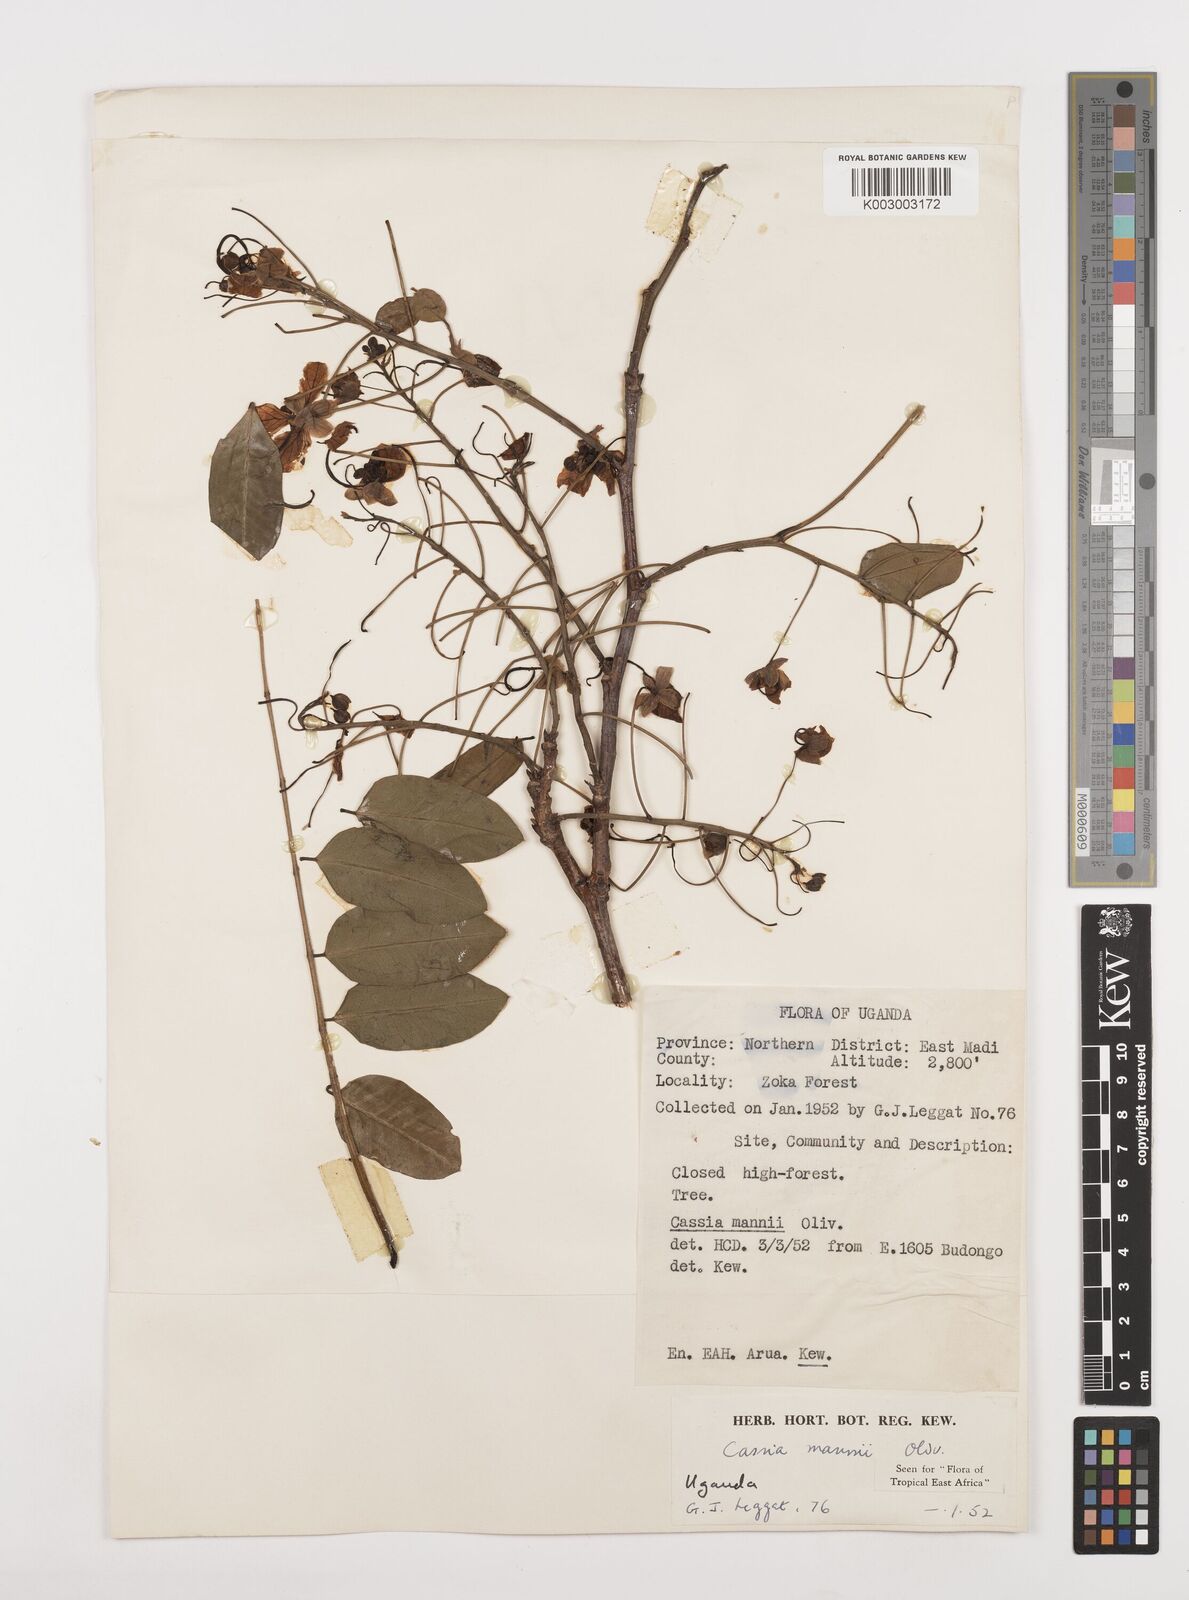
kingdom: Plantae
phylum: Tracheophyta
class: Magnoliopsida
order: Fabales
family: Fabaceae
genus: Cassia
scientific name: Cassia mannii
